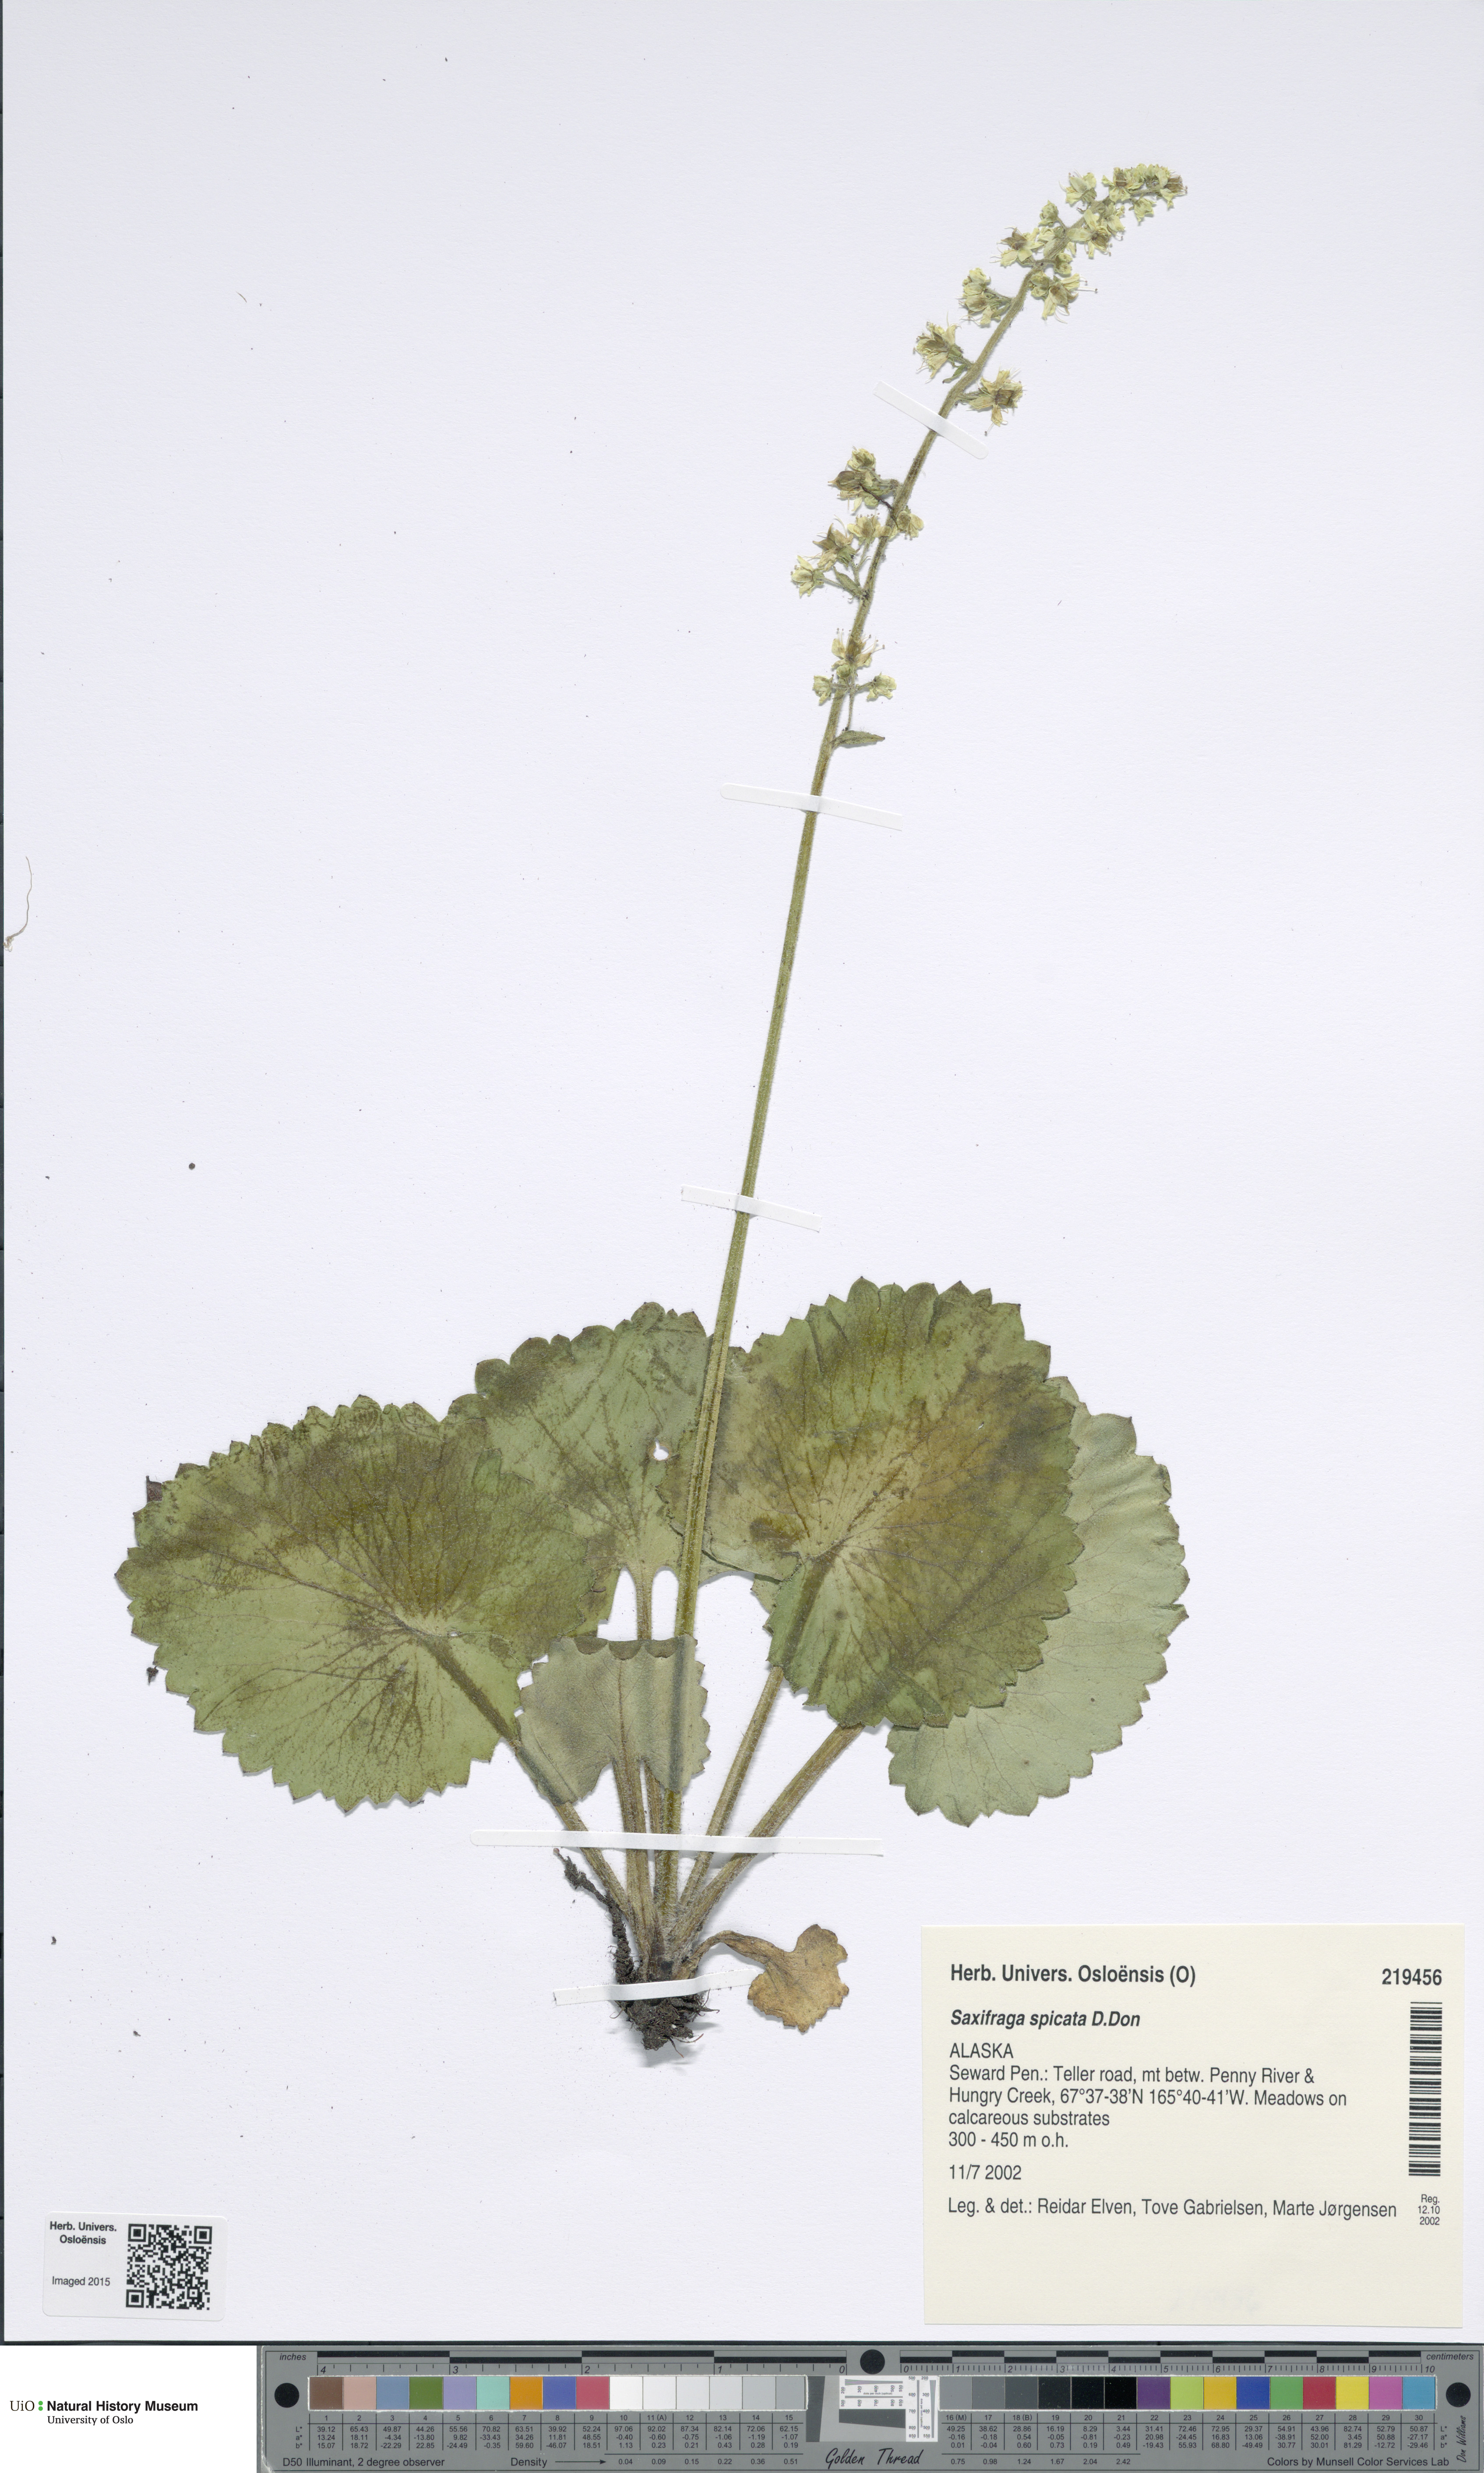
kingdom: Plantae
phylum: Tracheophyta
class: Magnoliopsida
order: Saxifragales
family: Saxifragaceae
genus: Micranthes
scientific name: Micranthes spicata
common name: Spiked saxifrage
